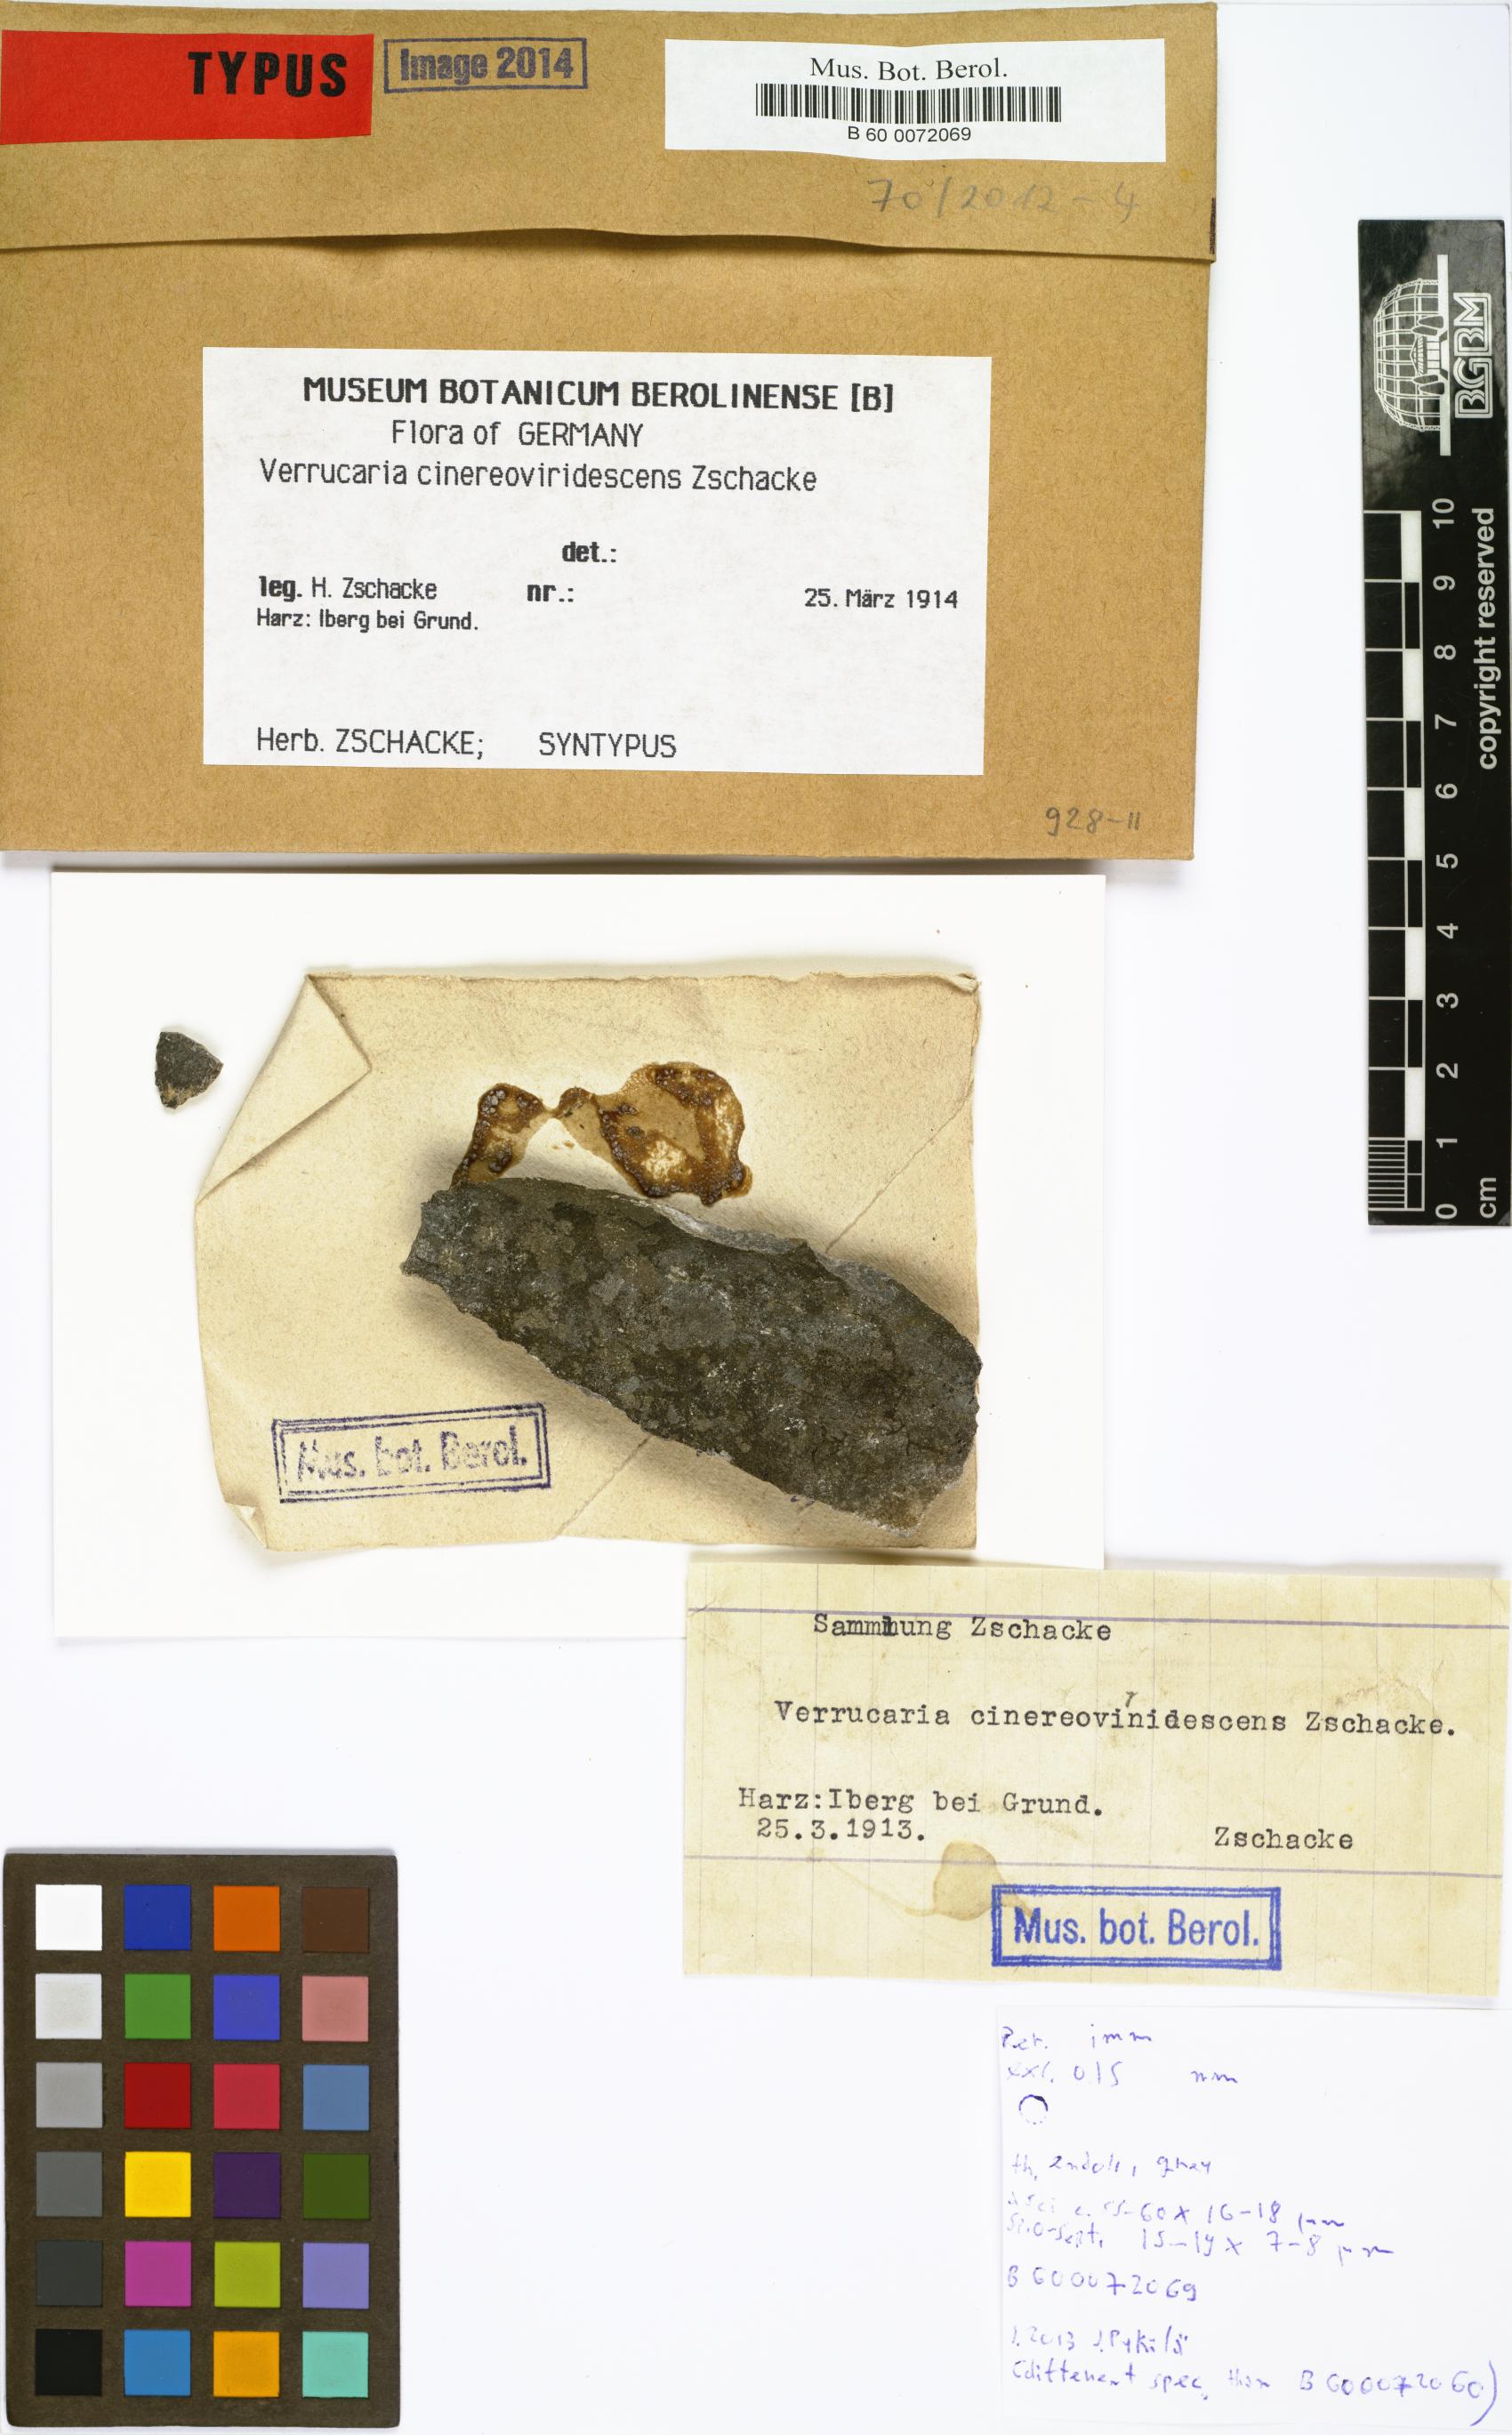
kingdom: Fungi
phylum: Ascomycota
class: Eurotiomycetes
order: Verrucariales
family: Verrucariaceae
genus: Verrucaria
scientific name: Verrucaria
